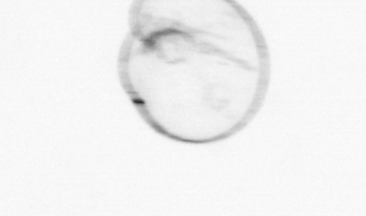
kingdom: Chromista
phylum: Myzozoa
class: Dinophyceae
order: Noctilucales
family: Noctilucaceae
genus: Noctiluca
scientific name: Noctiluca scintillans
